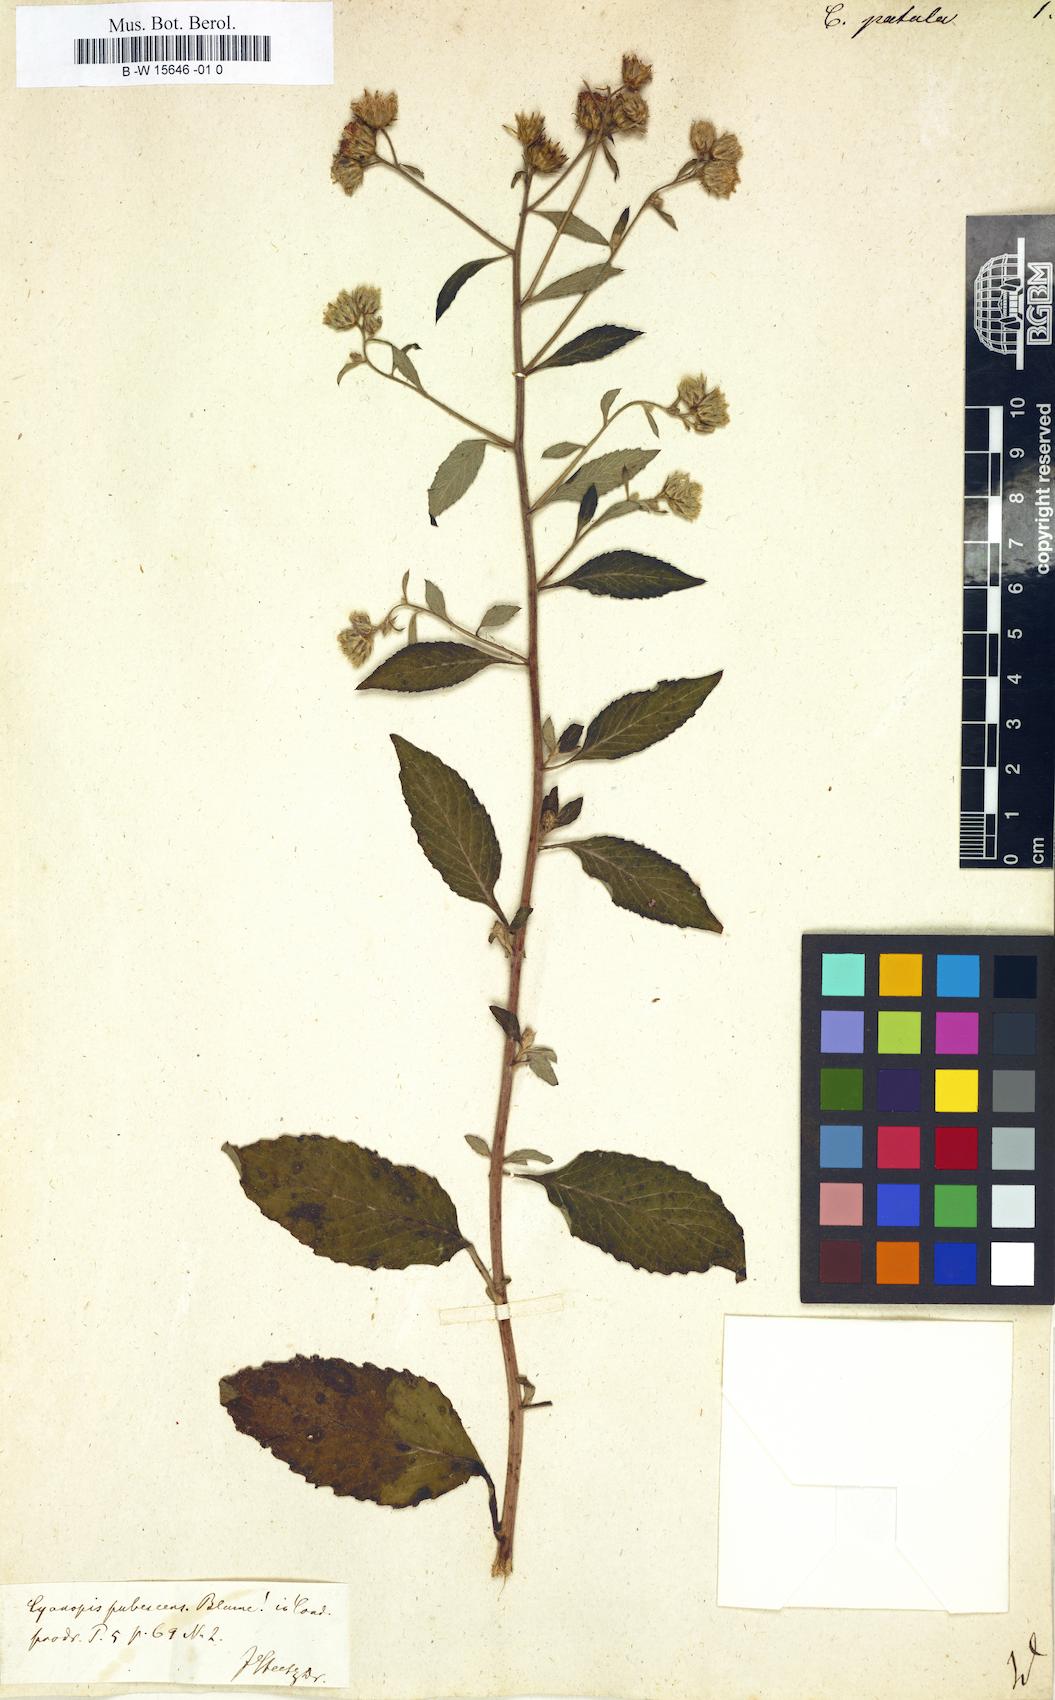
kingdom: Plantae
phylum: Tracheophyta
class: Magnoliopsida
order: Asterales
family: Asteraceae
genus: Cyanthillium
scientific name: Cyanthillium patulum
